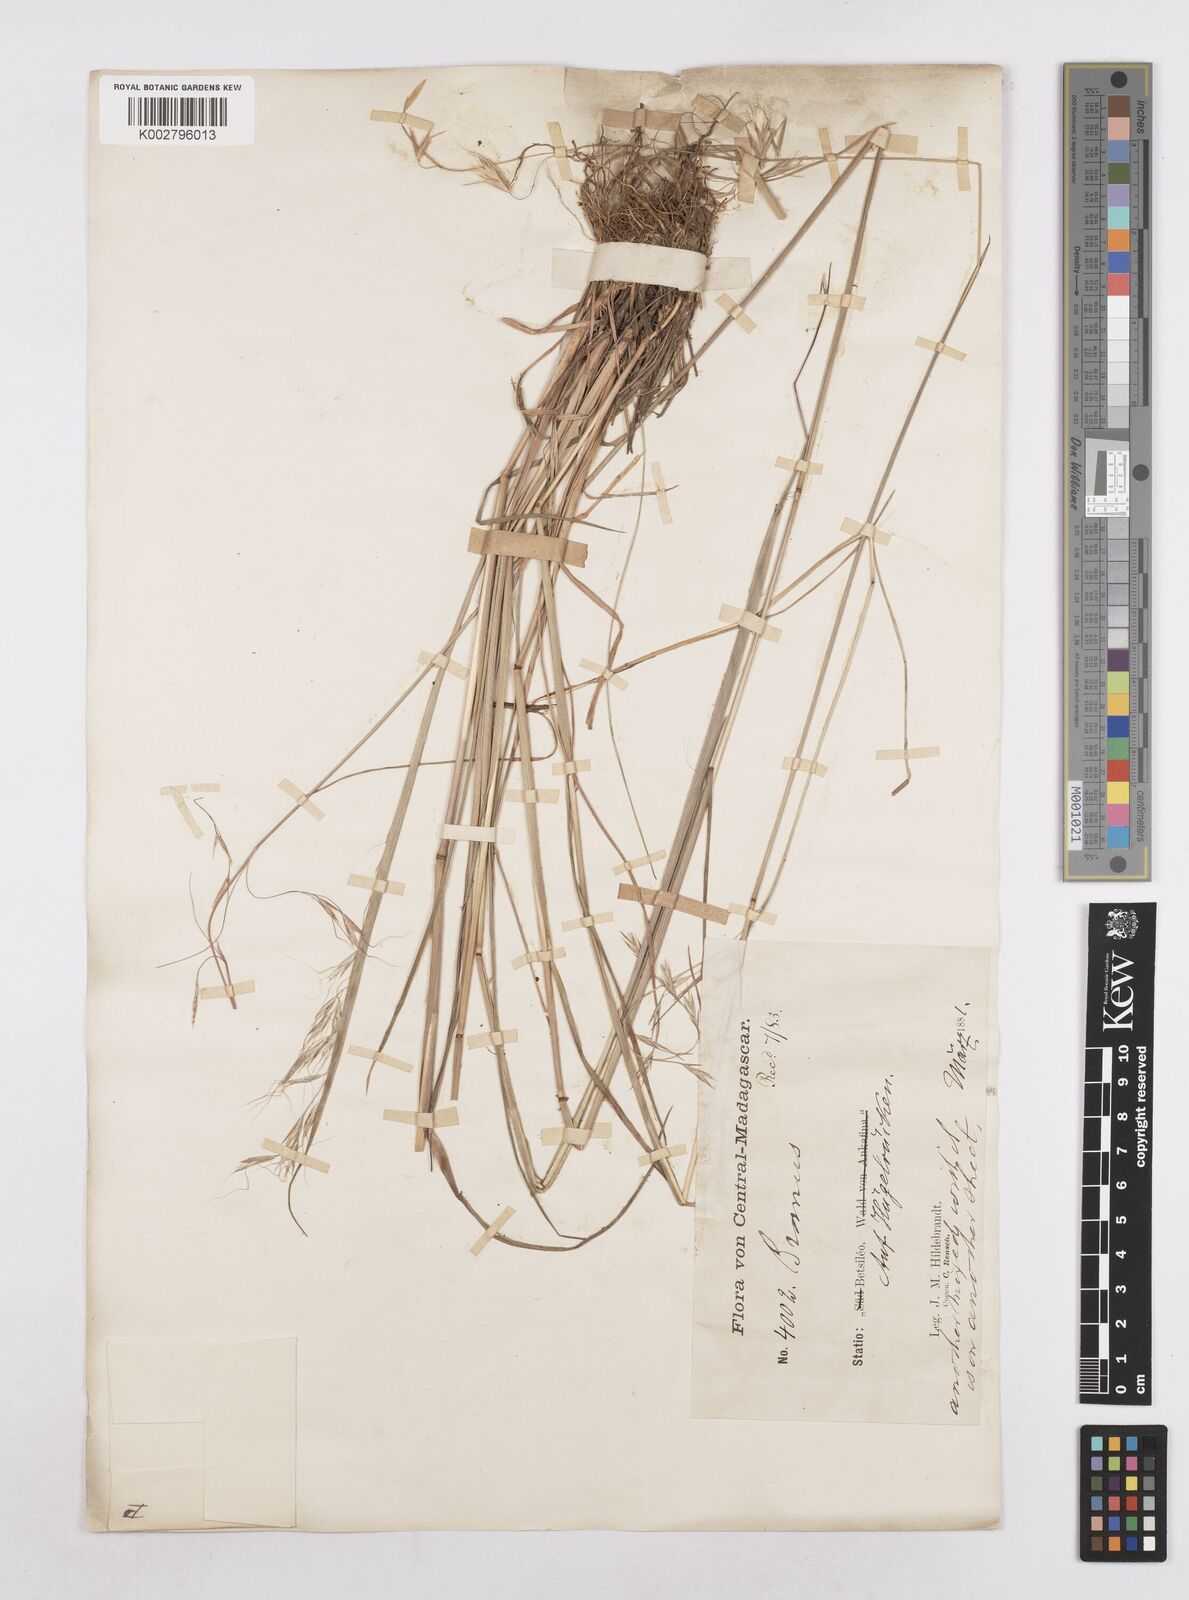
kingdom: Plantae
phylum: Tracheophyta
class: Liliopsida
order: Poales
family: Poaceae
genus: Trisetopsis
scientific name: Trisetopsis elongata
